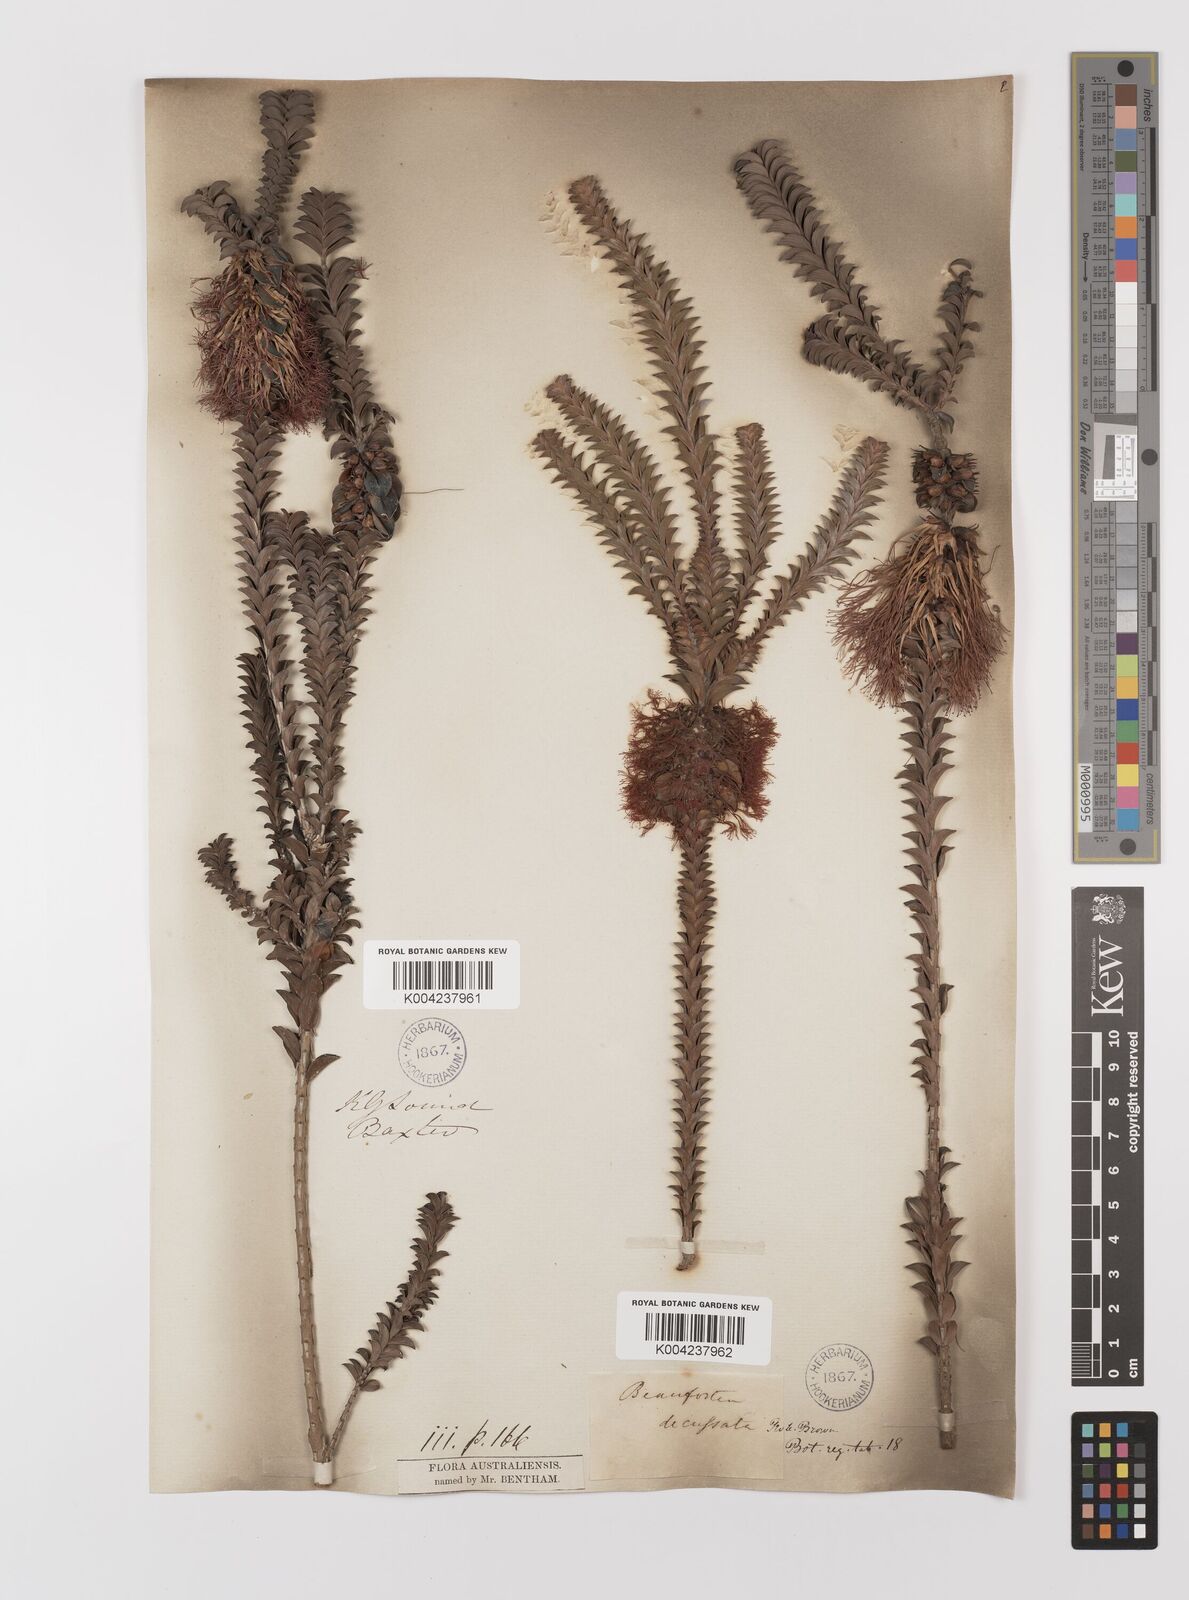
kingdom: Plantae
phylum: Tracheophyta
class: Magnoliopsida
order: Myrtales
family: Myrtaceae
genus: Melaleuca
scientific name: Melaleuca transversa
